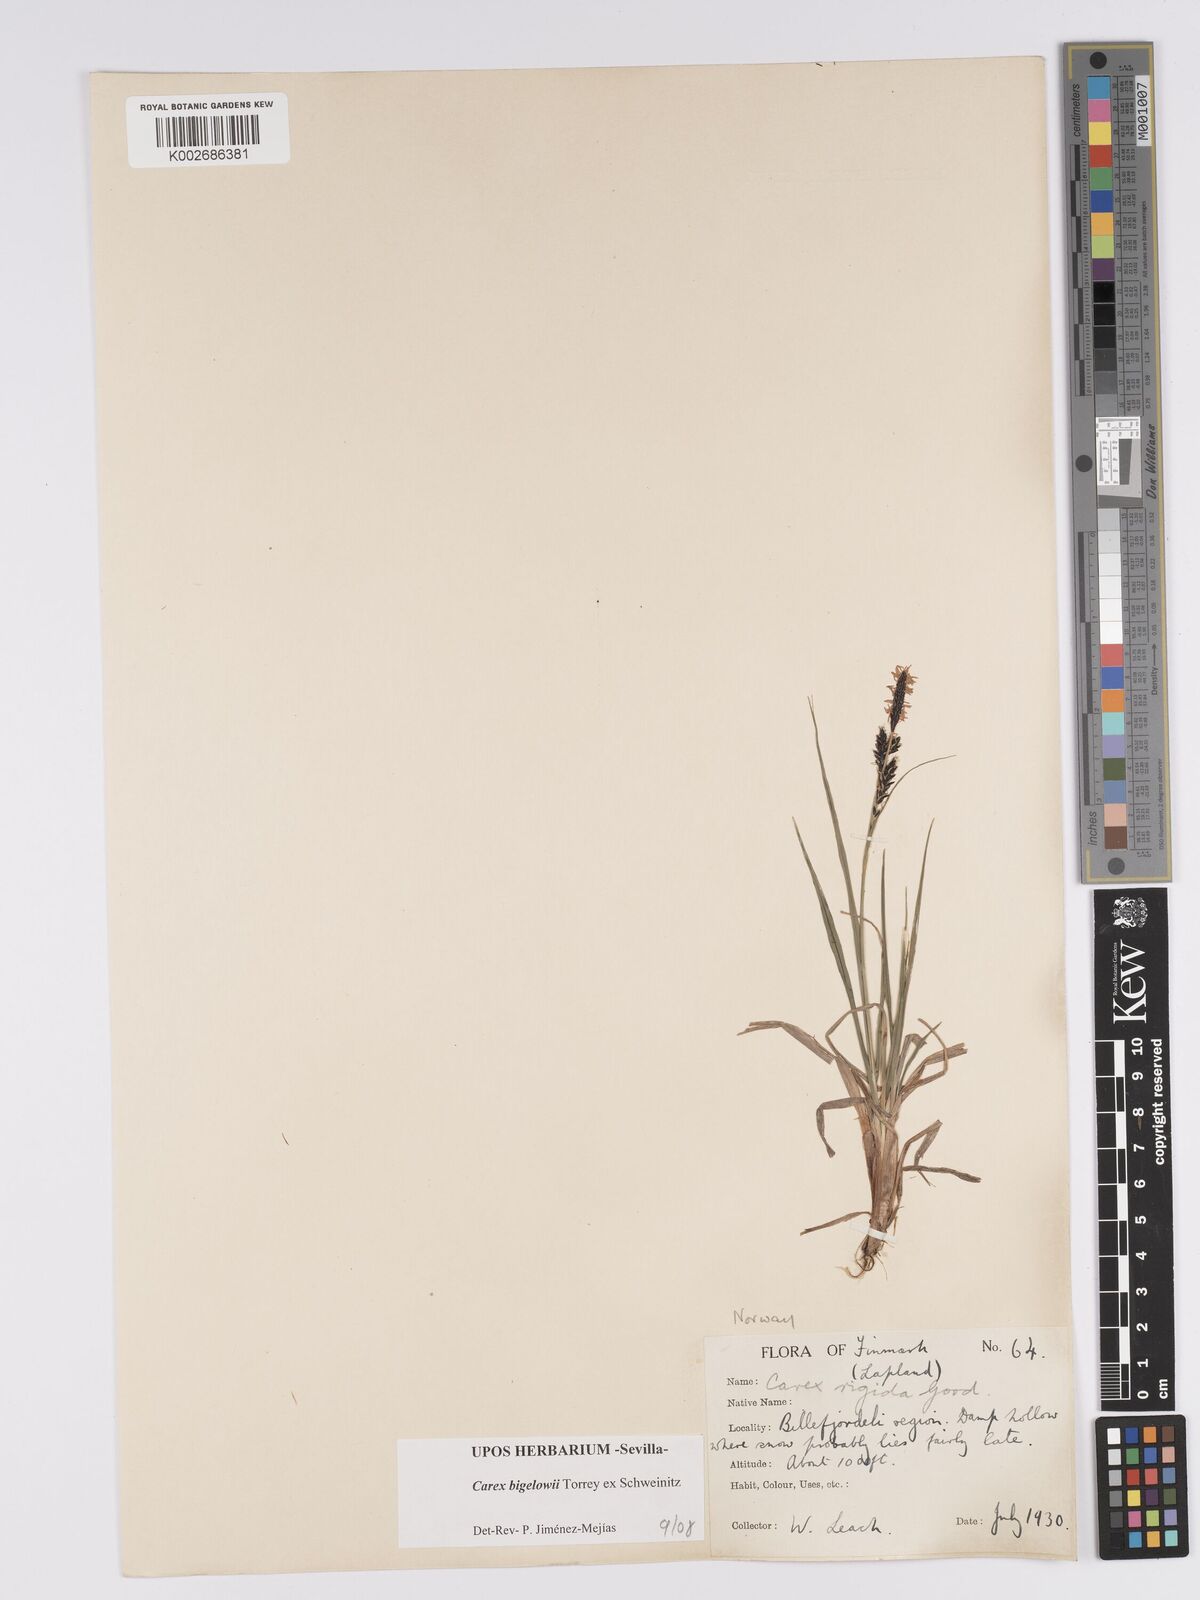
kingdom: Plantae
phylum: Tracheophyta
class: Liliopsida
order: Poales
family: Cyperaceae
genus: Carex
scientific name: Carex bigelowii
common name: Stiff sedge
